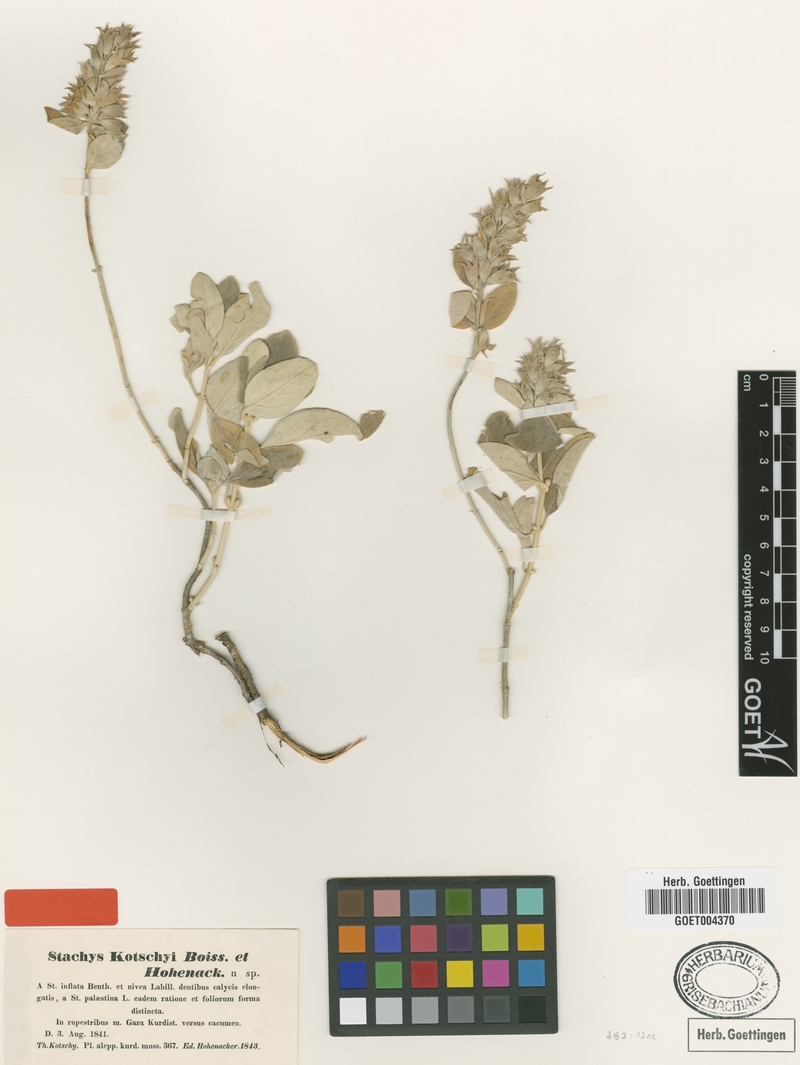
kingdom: Plantae
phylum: Tracheophyta
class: Magnoliopsida
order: Lamiales
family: Lamiaceae
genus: Stachys
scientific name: Stachys kotschyi
